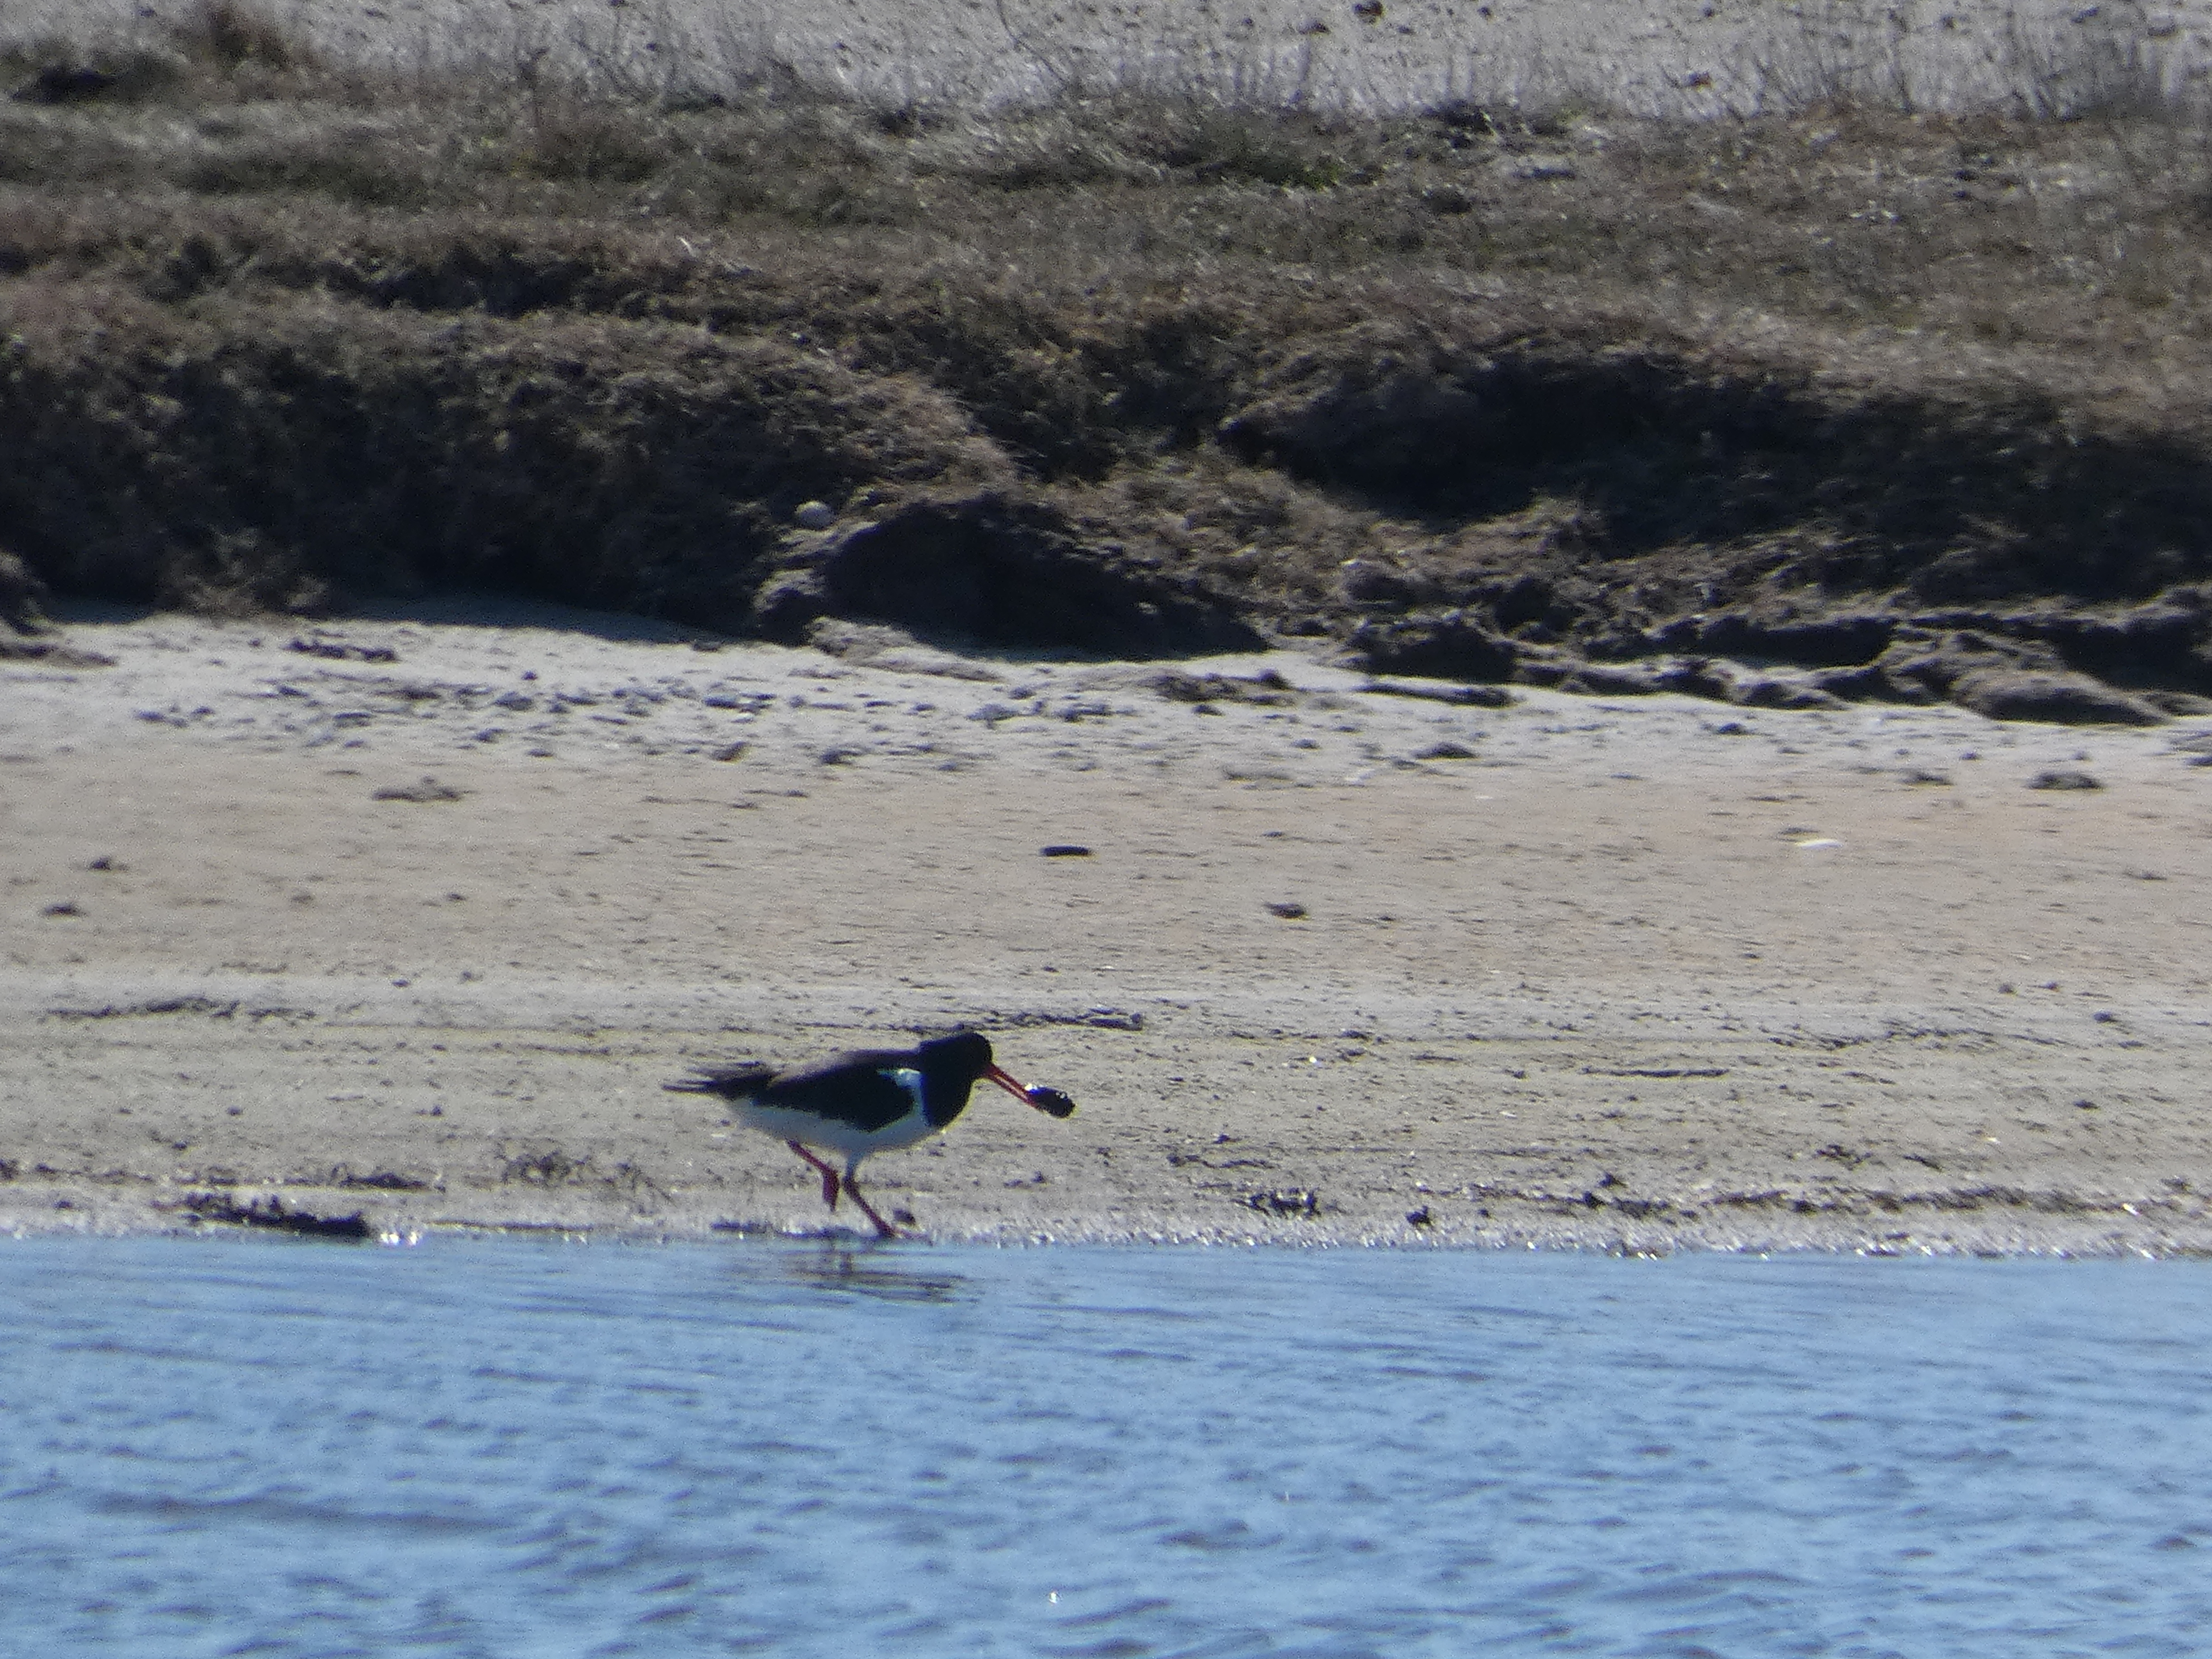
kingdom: Animalia
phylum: Chordata
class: Aves
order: Charadriiformes
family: Haematopodidae
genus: Haematopus
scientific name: Haematopus ostralegus
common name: Strandskade
